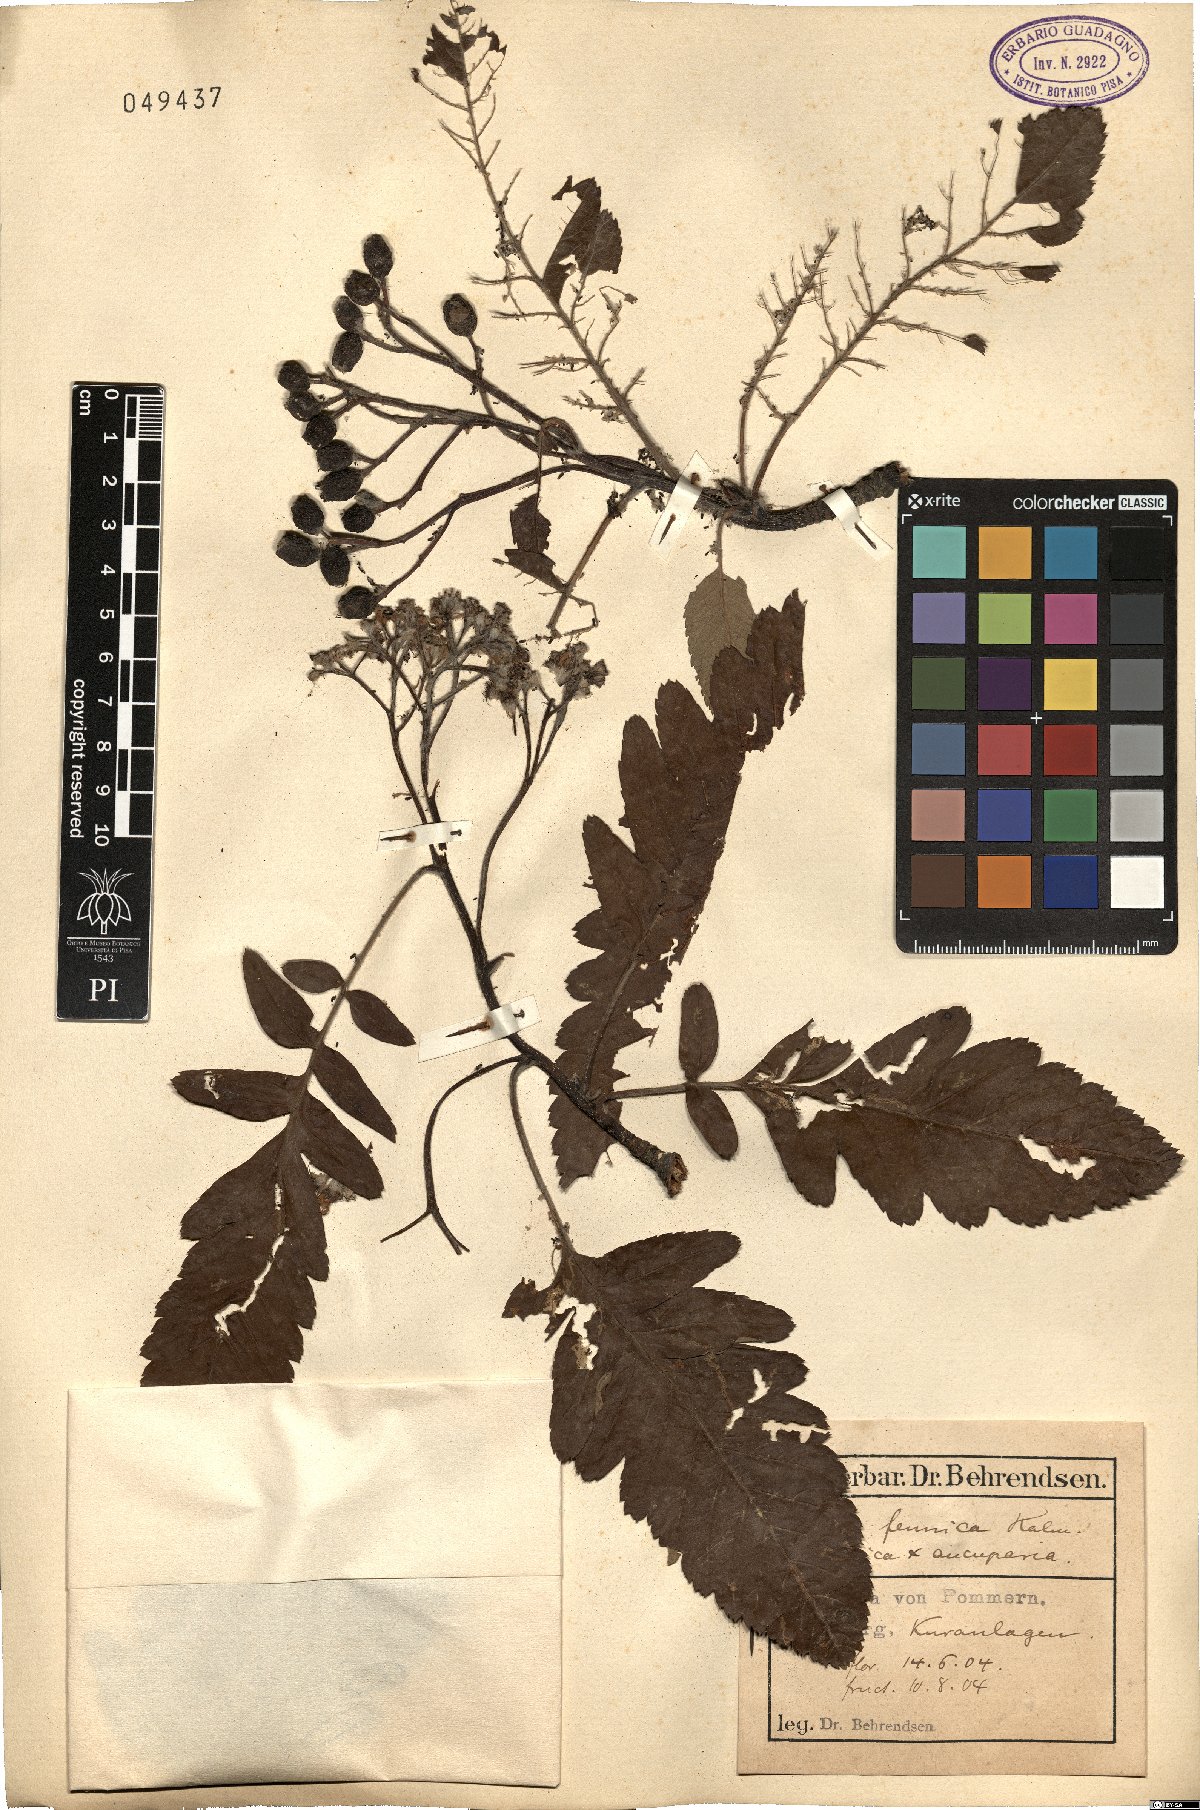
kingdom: Plantae
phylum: Tracheophyta
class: Magnoliopsida
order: Rosales
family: Rosaceae
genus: Hedlundia
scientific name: Hedlundia hybrida
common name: Swedish service-tree
